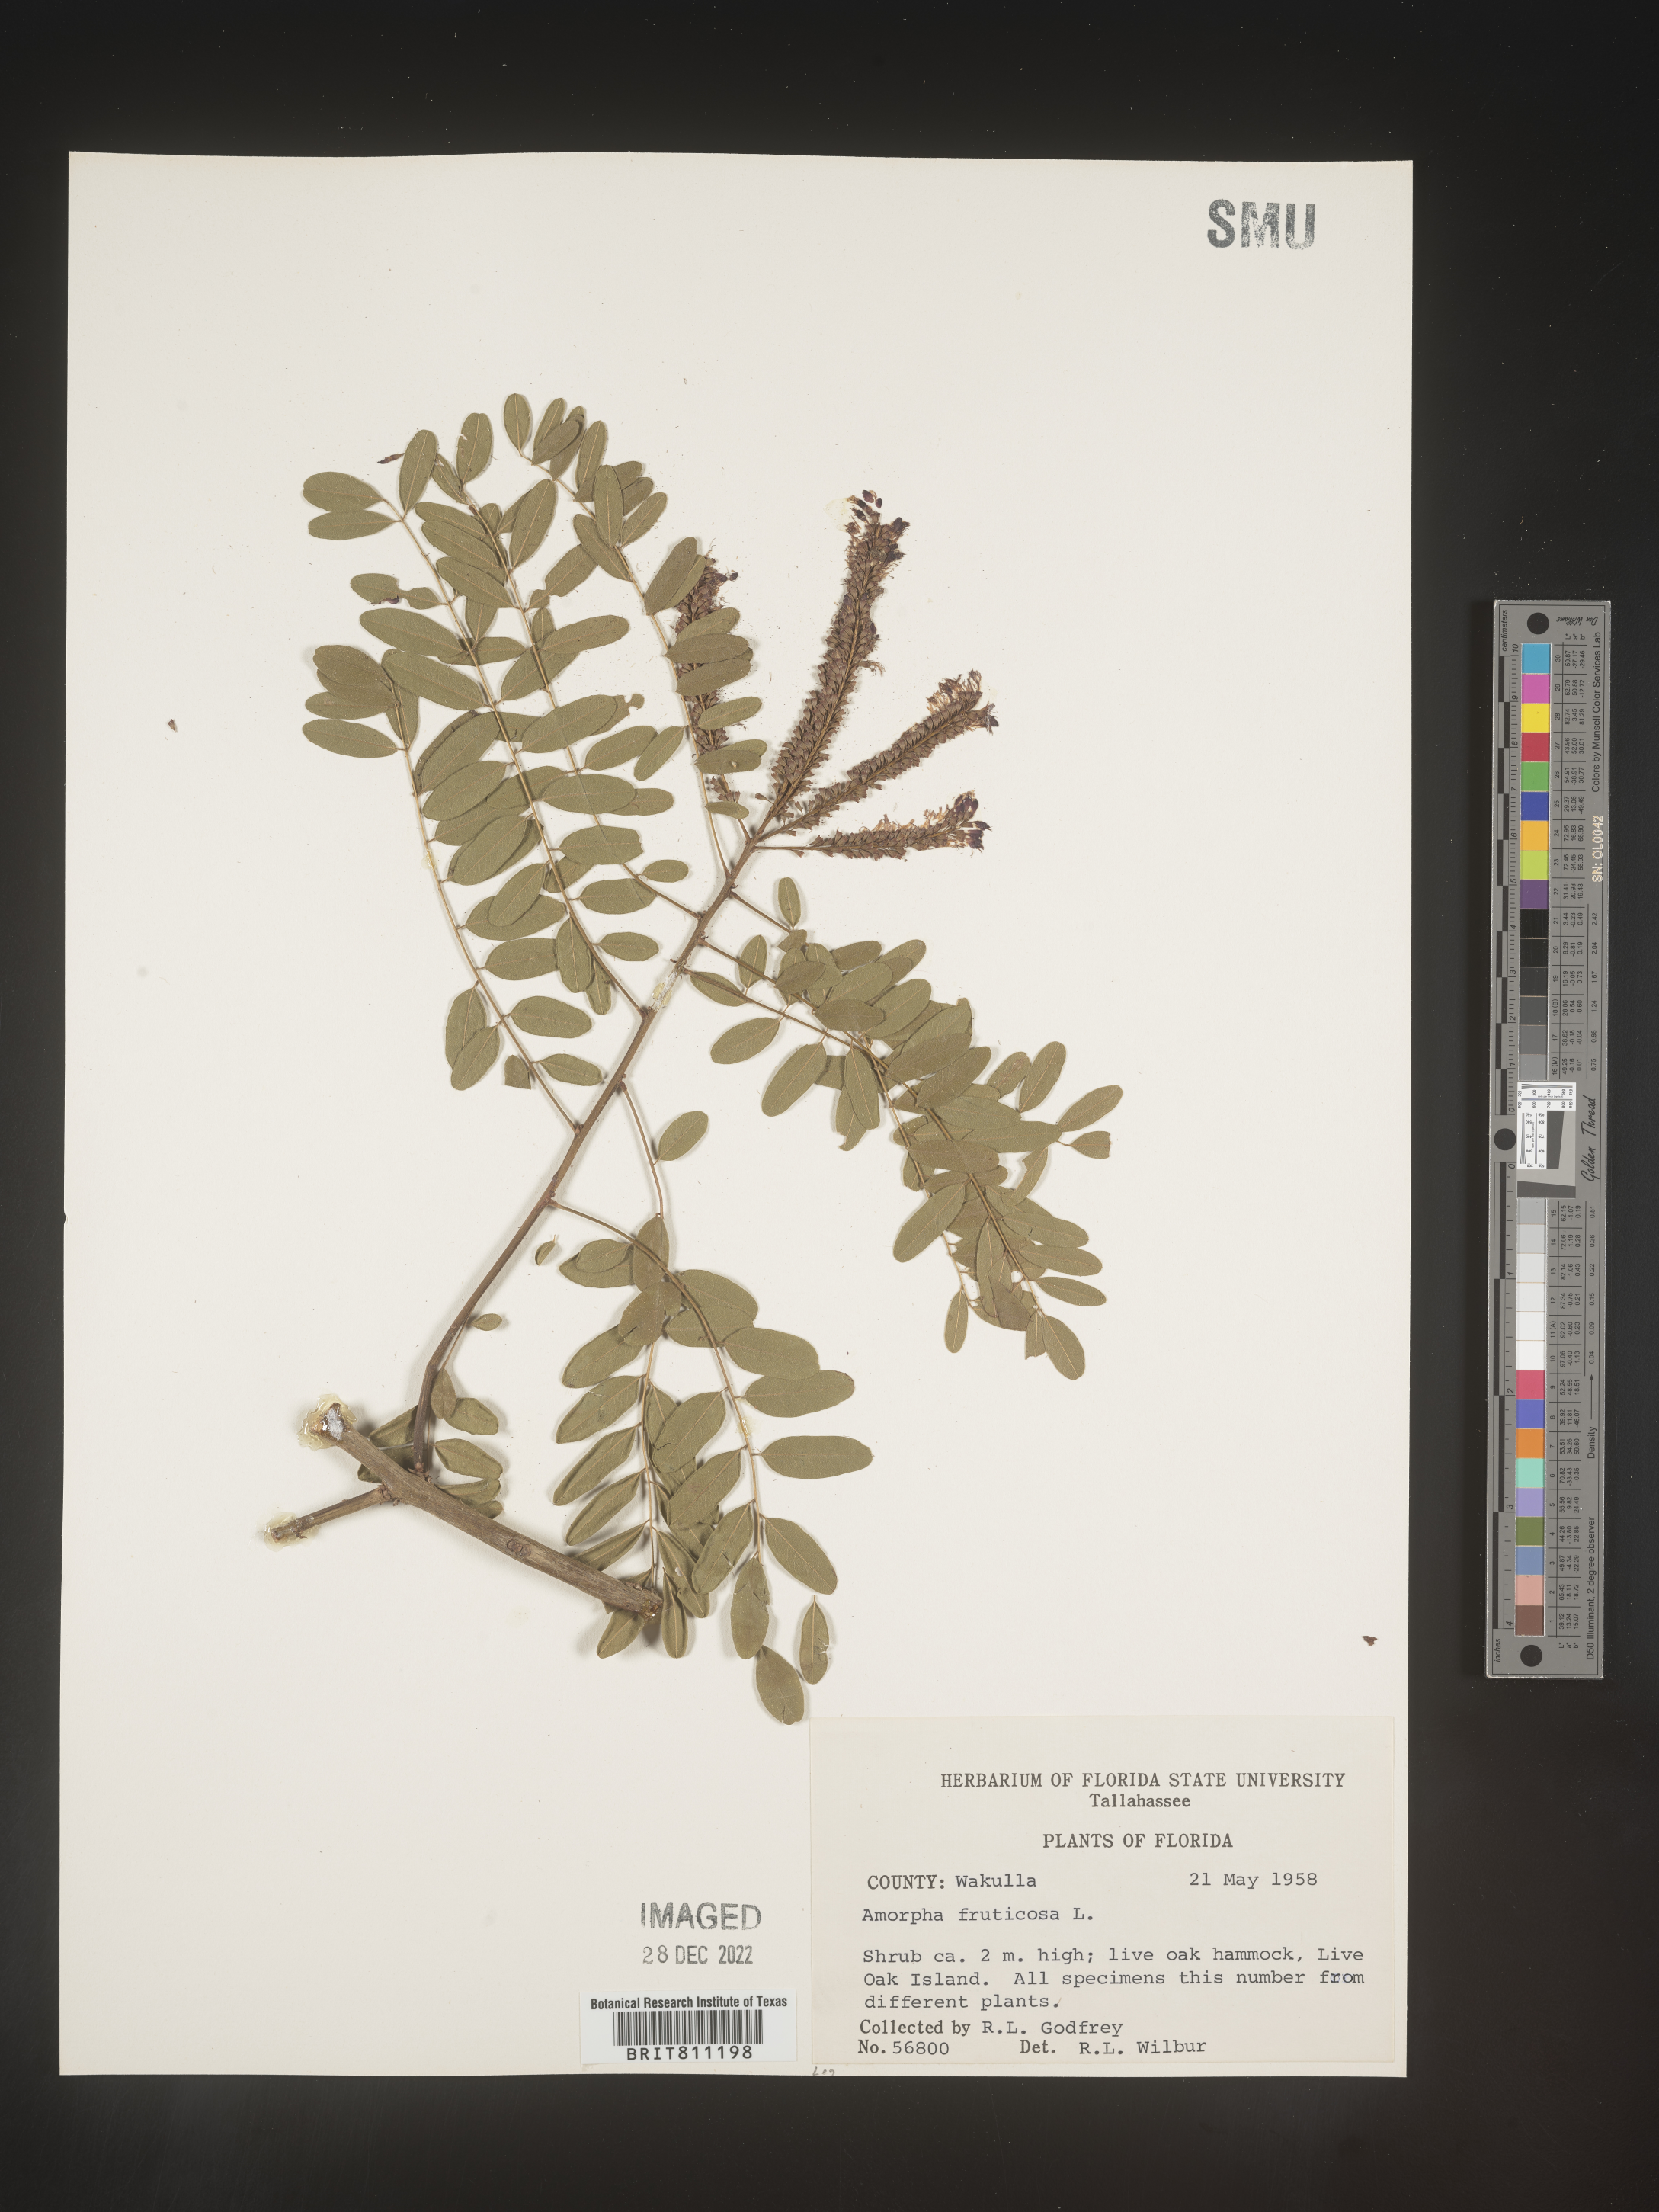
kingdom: Plantae
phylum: Tracheophyta
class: Magnoliopsida
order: Fabales
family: Fabaceae
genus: Amorpha
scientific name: Amorpha fruticosa
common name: False indigo
